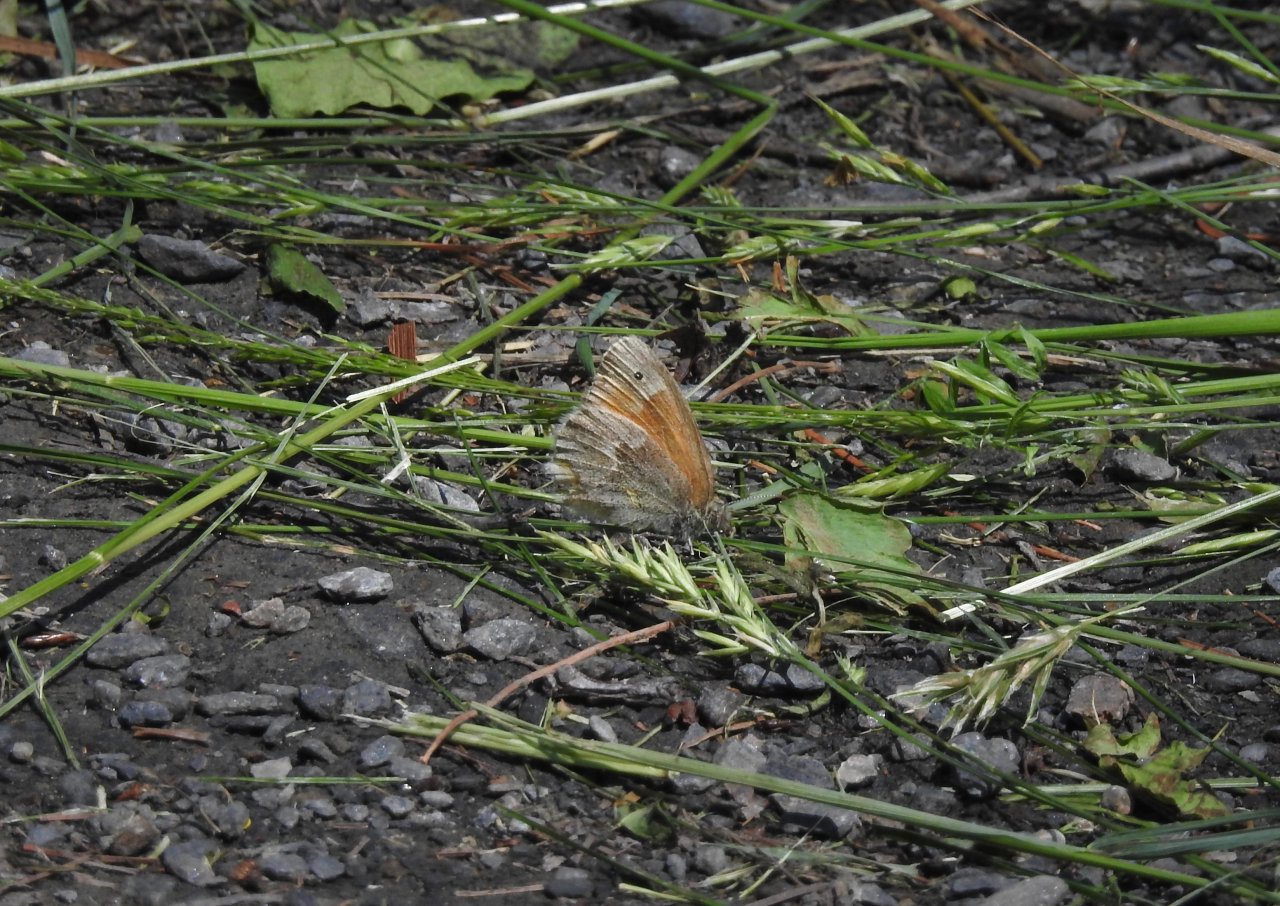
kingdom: Animalia
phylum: Arthropoda
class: Insecta
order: Lepidoptera
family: Nymphalidae
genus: Coenonympha
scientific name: Coenonympha tullia
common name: Large Heath
